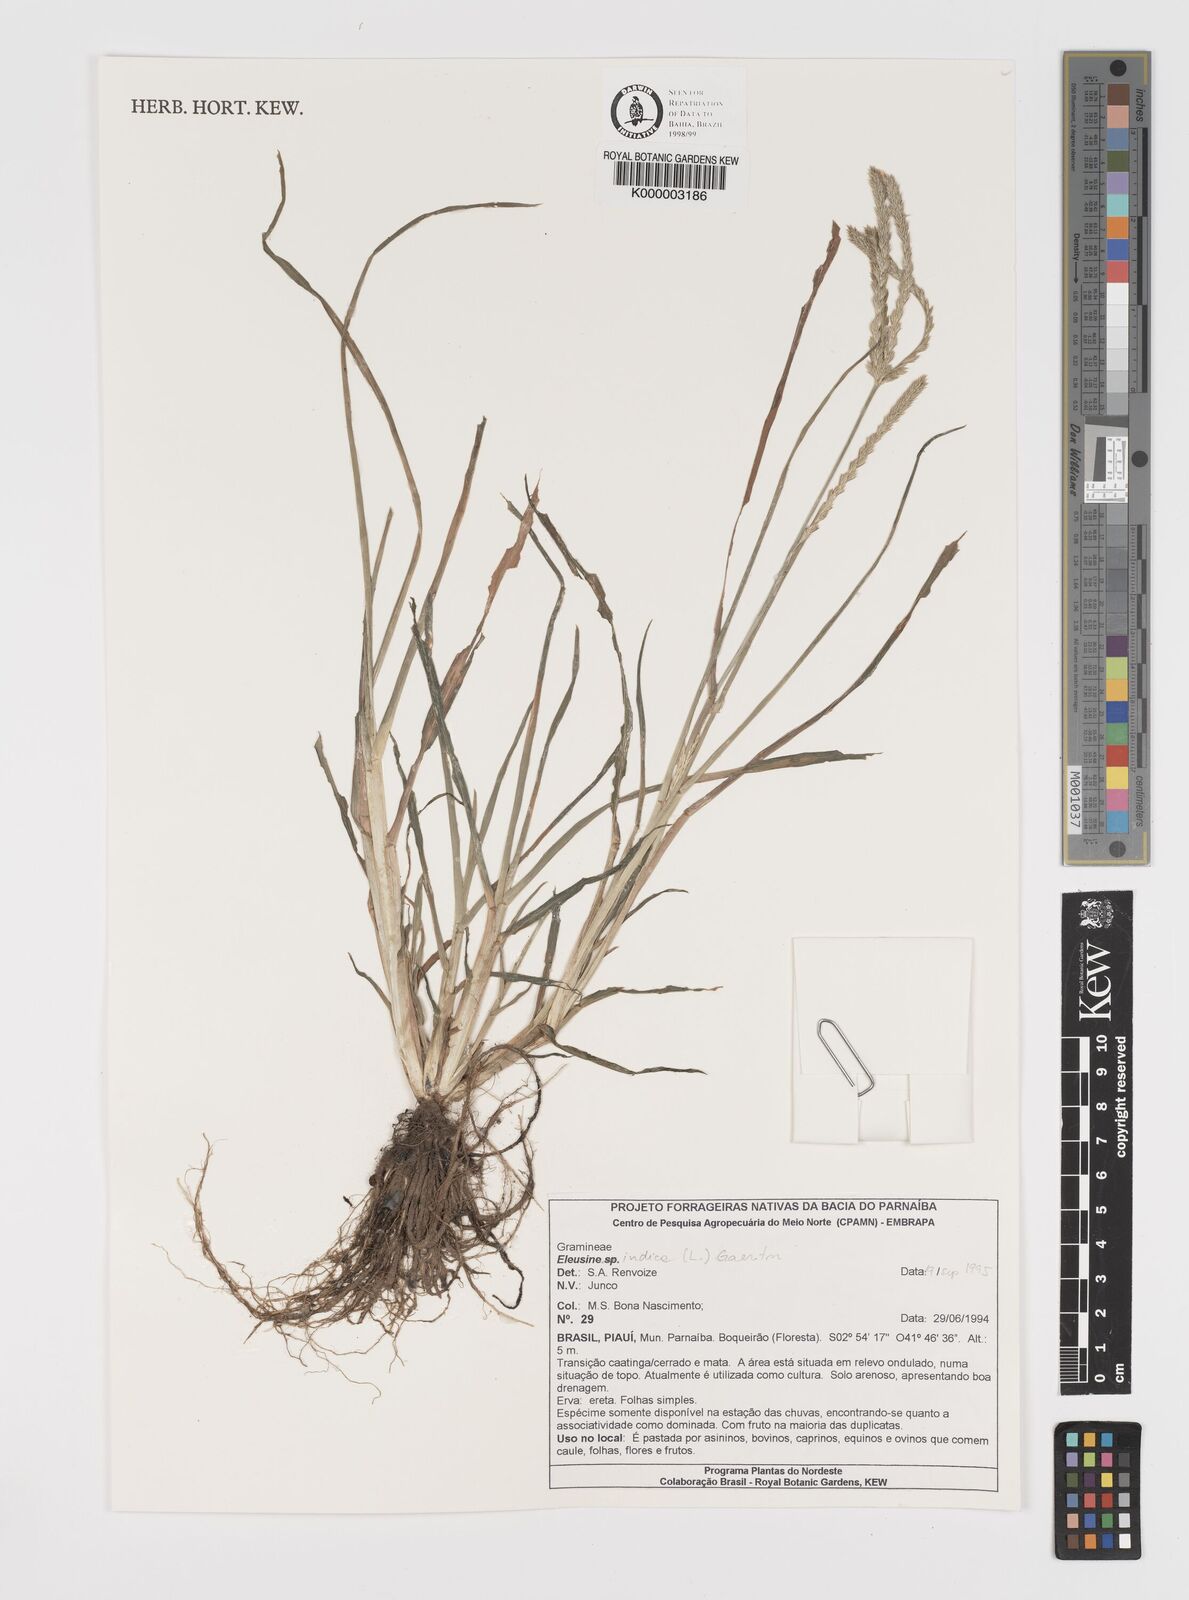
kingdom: Plantae
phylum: Tracheophyta
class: Liliopsida
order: Poales
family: Poaceae
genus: Eleusine
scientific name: Eleusine indica
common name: Yard-grass
